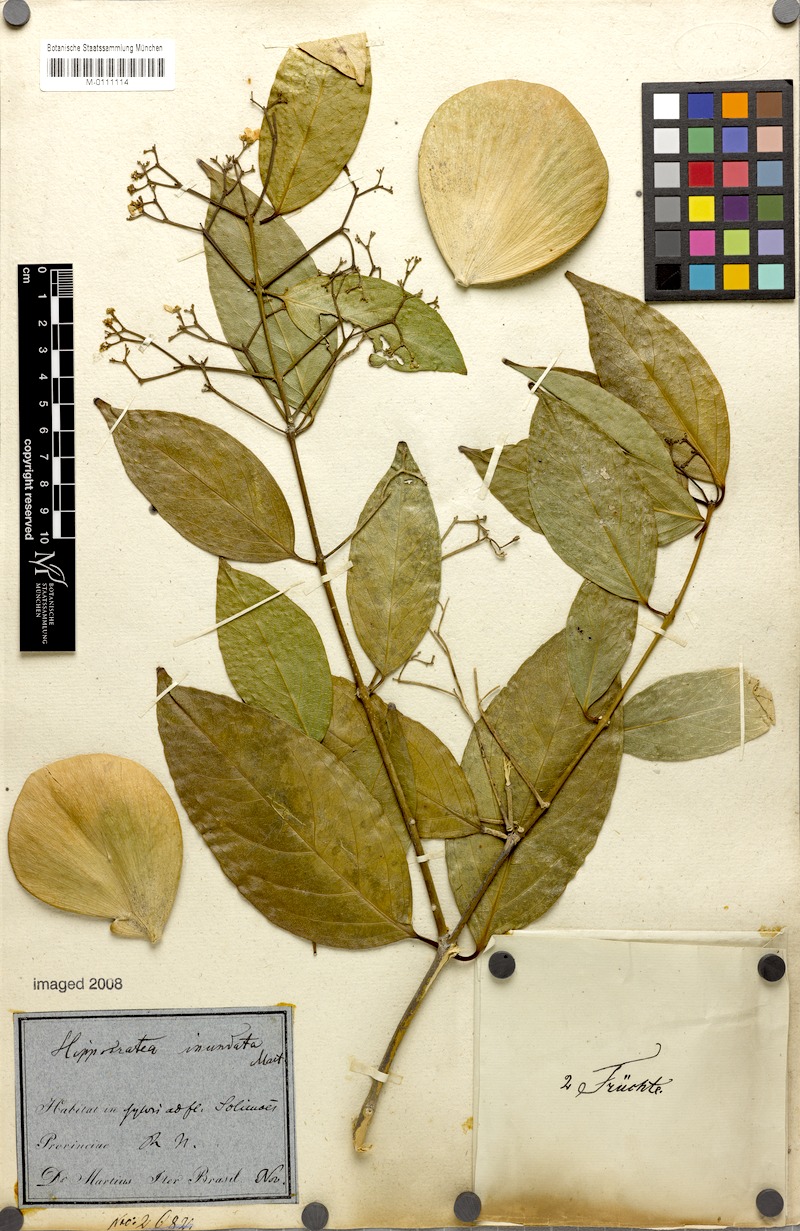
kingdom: Plantae
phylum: Tracheophyta
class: Magnoliopsida
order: Celastrales
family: Celastraceae
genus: Cuervea
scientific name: Cuervea kappleriana
